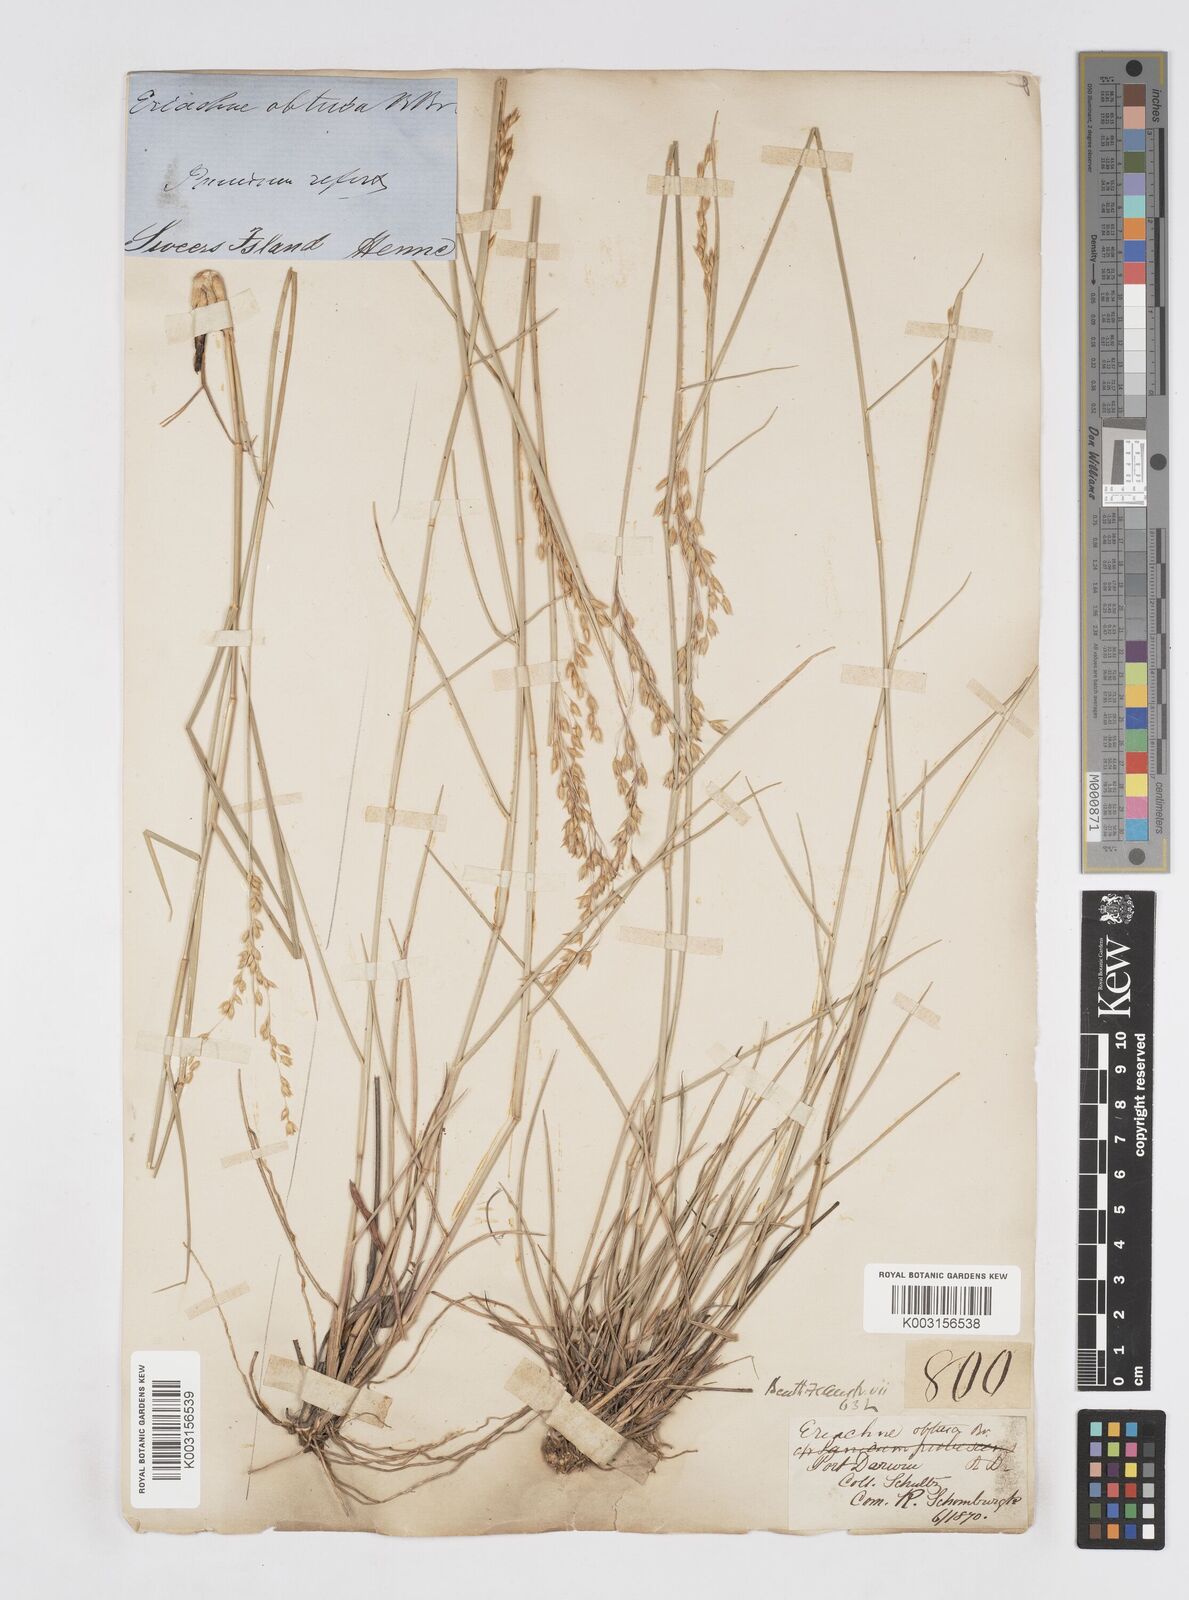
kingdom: Plantae
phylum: Tracheophyta
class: Liliopsida
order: Poales
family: Poaceae
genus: Eriachne
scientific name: Eriachne obtusa
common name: Northern wanderrie grass
